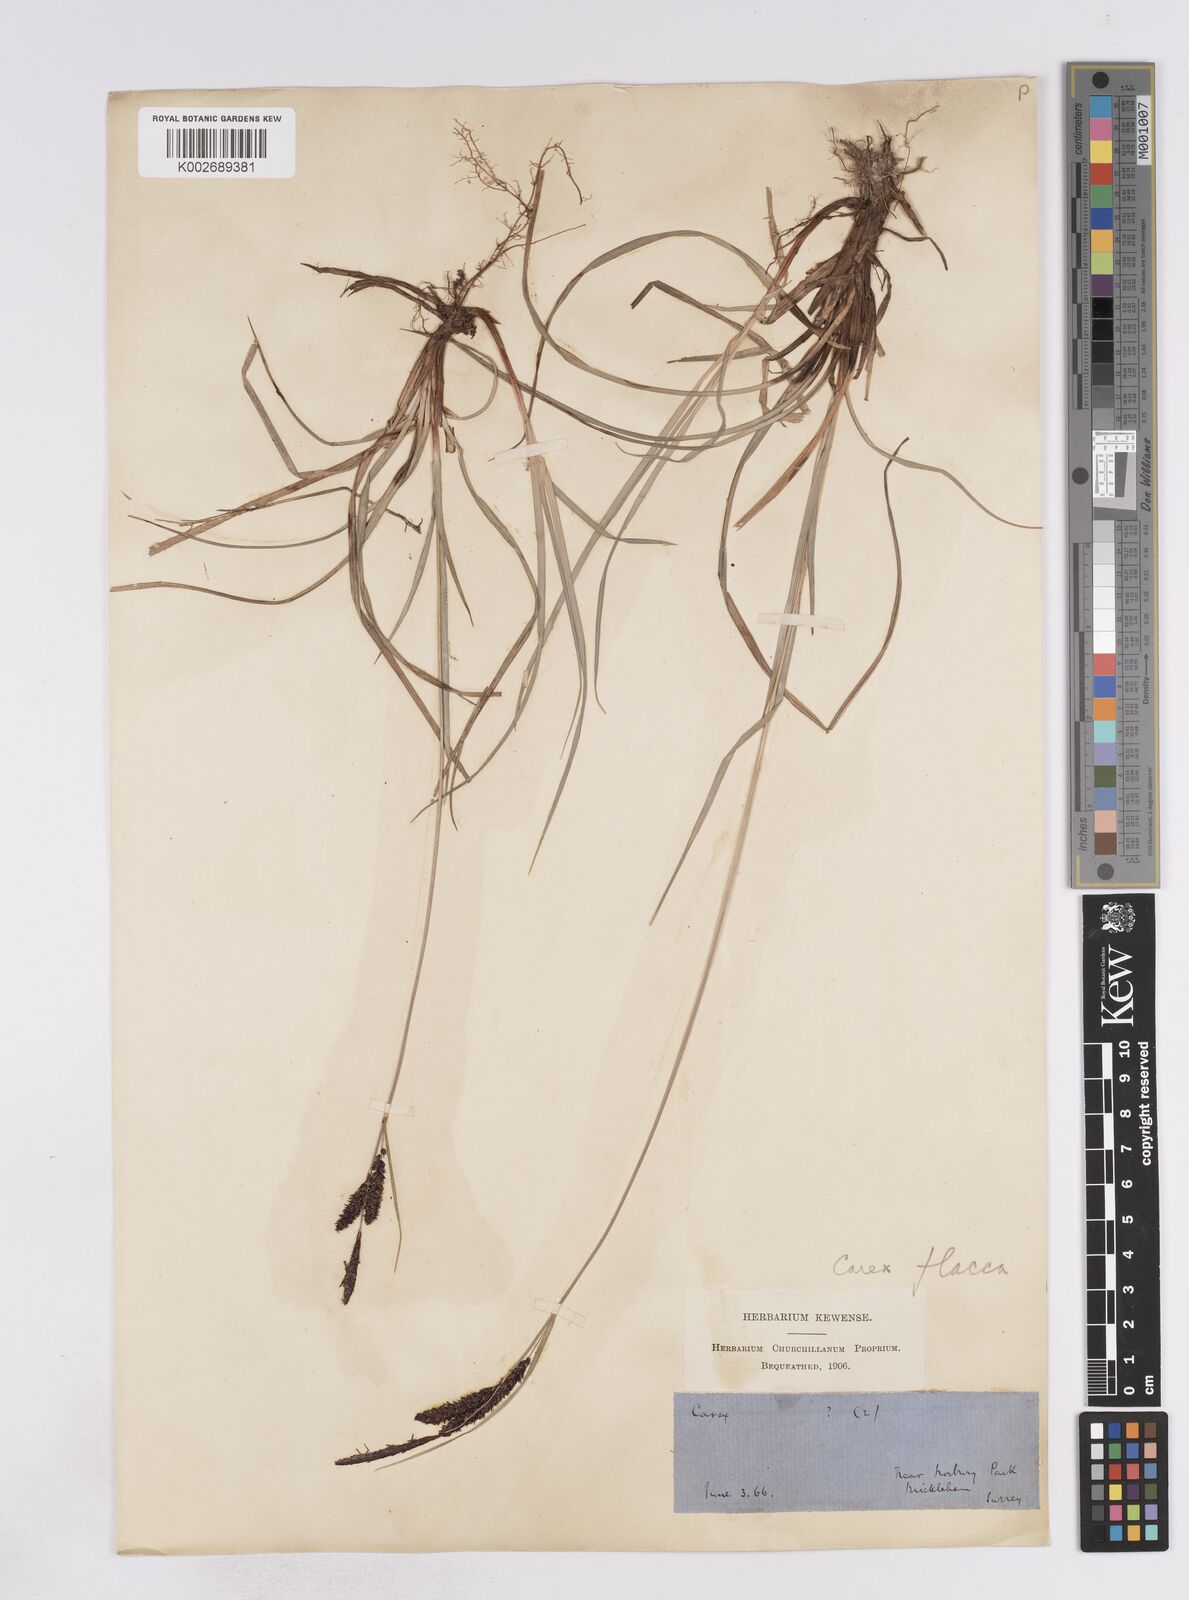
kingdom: Plantae
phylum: Tracheophyta
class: Liliopsida
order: Poales
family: Cyperaceae
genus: Carex
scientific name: Carex flacca
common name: Glaucous sedge
